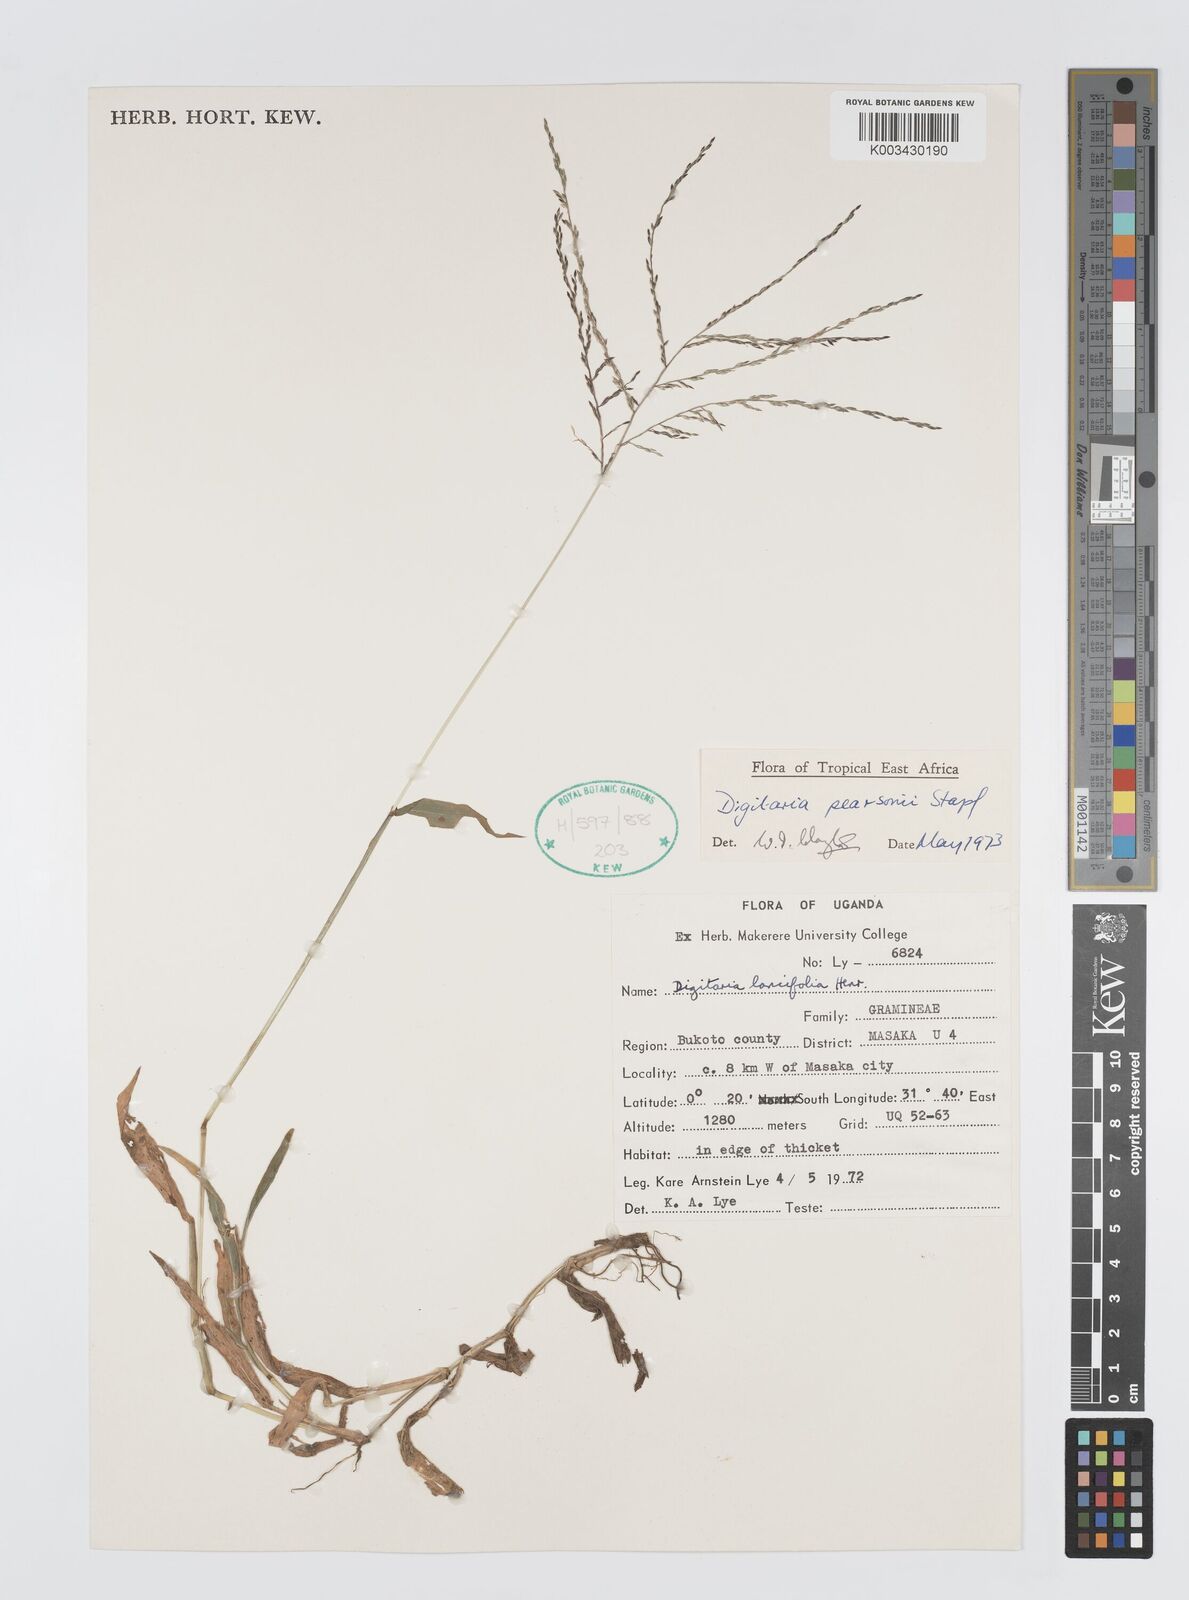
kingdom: Plantae
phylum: Tracheophyta
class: Liliopsida
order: Poales
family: Poaceae
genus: Digitaria
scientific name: Digitaria pearsonii
